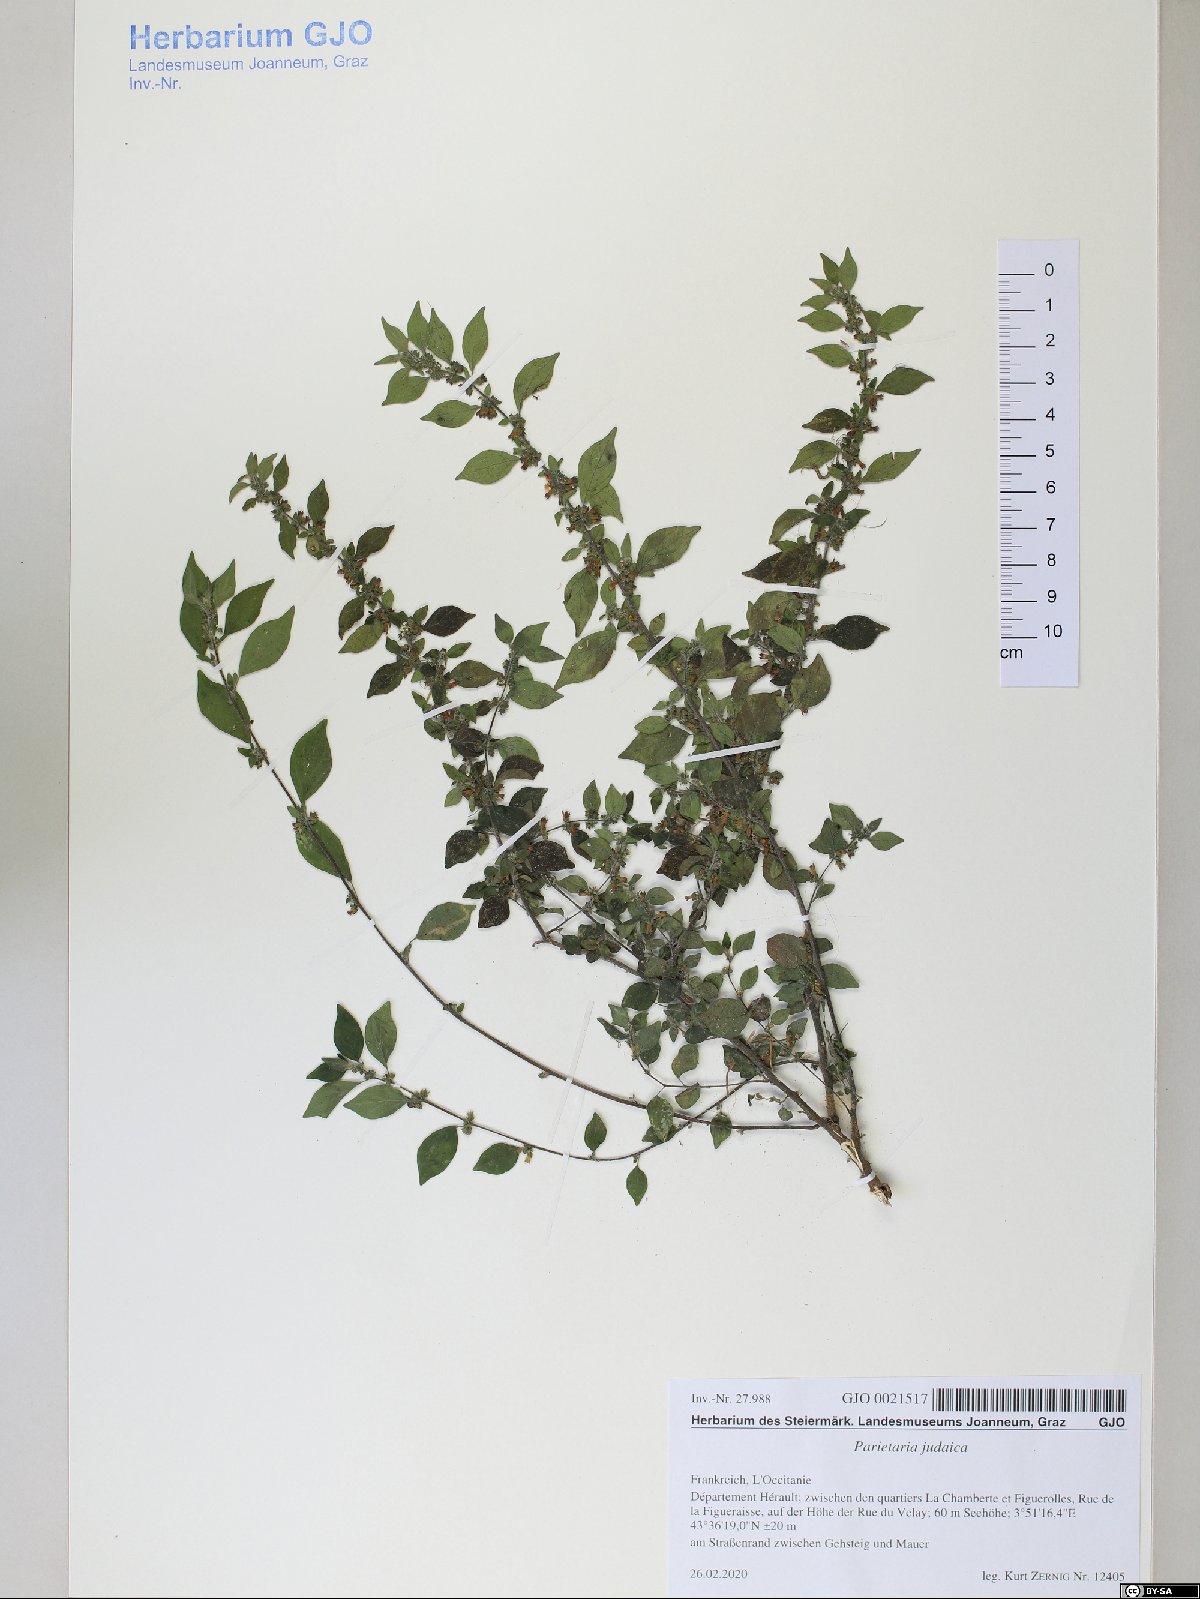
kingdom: Plantae
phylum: Tracheophyta
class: Magnoliopsida
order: Rosales
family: Urticaceae
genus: Parietaria
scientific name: Parietaria judaica
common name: Pellitory-of-the-wall
